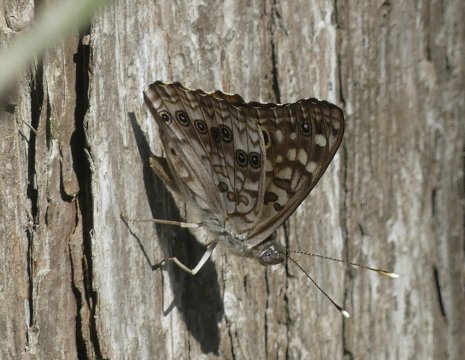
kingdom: Animalia
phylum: Arthropoda
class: Insecta
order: Lepidoptera
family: Nymphalidae
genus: Asterocampa
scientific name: Asterocampa celtis
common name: Hackberry Emperor
